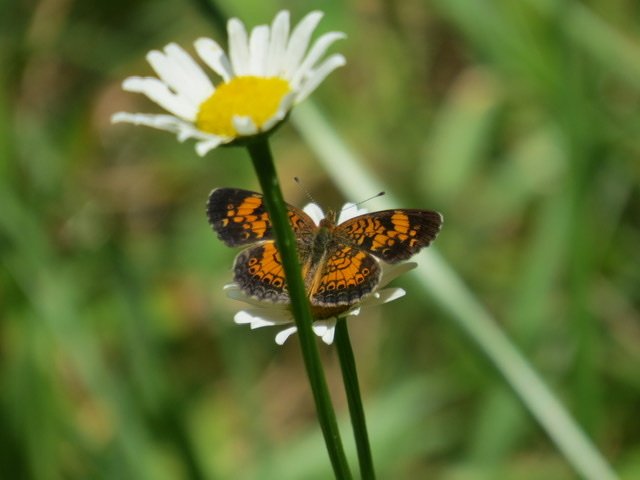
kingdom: Animalia
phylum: Arthropoda
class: Insecta
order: Lepidoptera
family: Nymphalidae
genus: Phyciodes
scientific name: Phyciodes tharos
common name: Pearl Crescent
